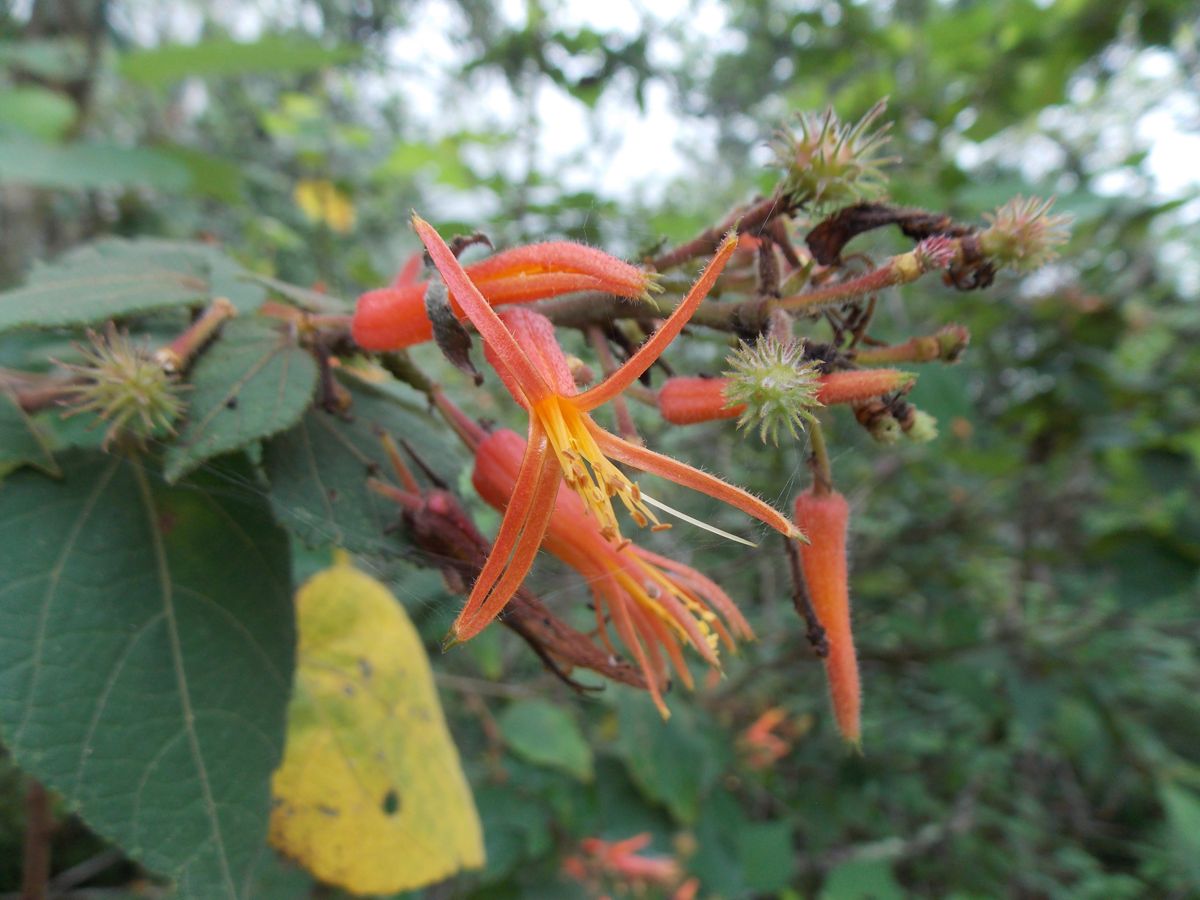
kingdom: Plantae
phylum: Tracheophyta
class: Magnoliopsida
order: Malvales
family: Malvaceae
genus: Triumfetta
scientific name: Triumfetta speciosa
